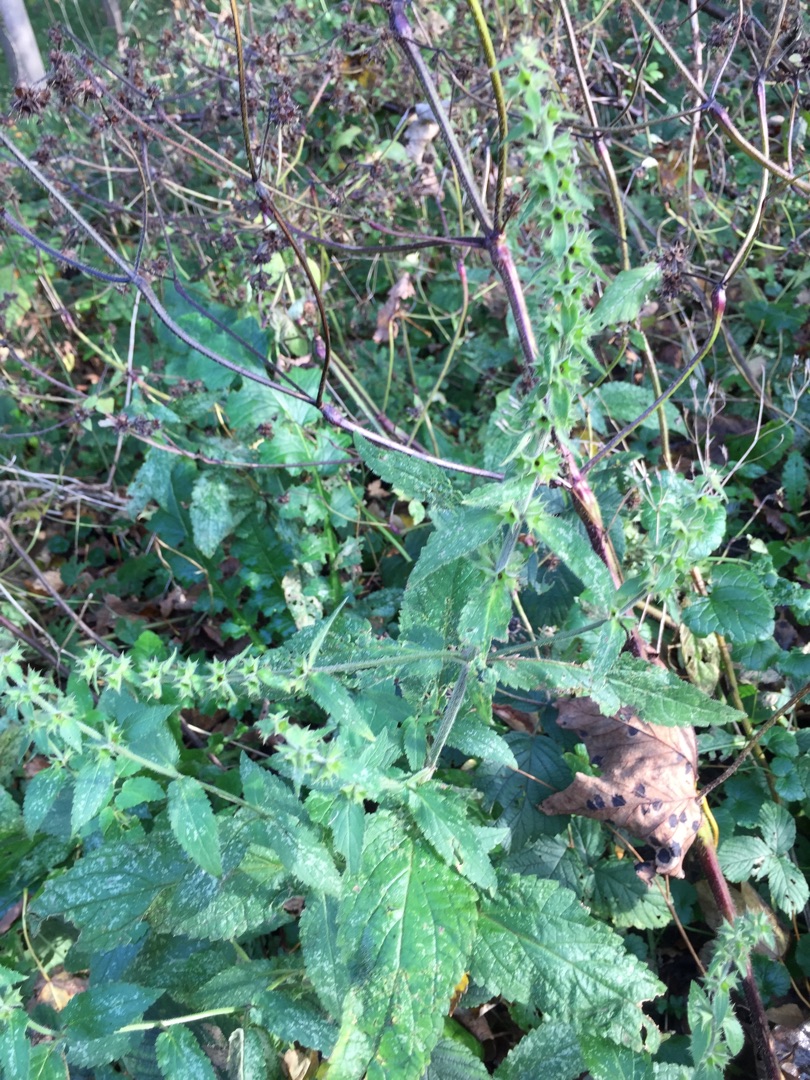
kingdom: Plantae
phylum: Tracheophyta
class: Magnoliopsida
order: Lamiales
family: Lamiaceae
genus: Stachys
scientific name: Stachys sylvatica
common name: Skov-galtetand
